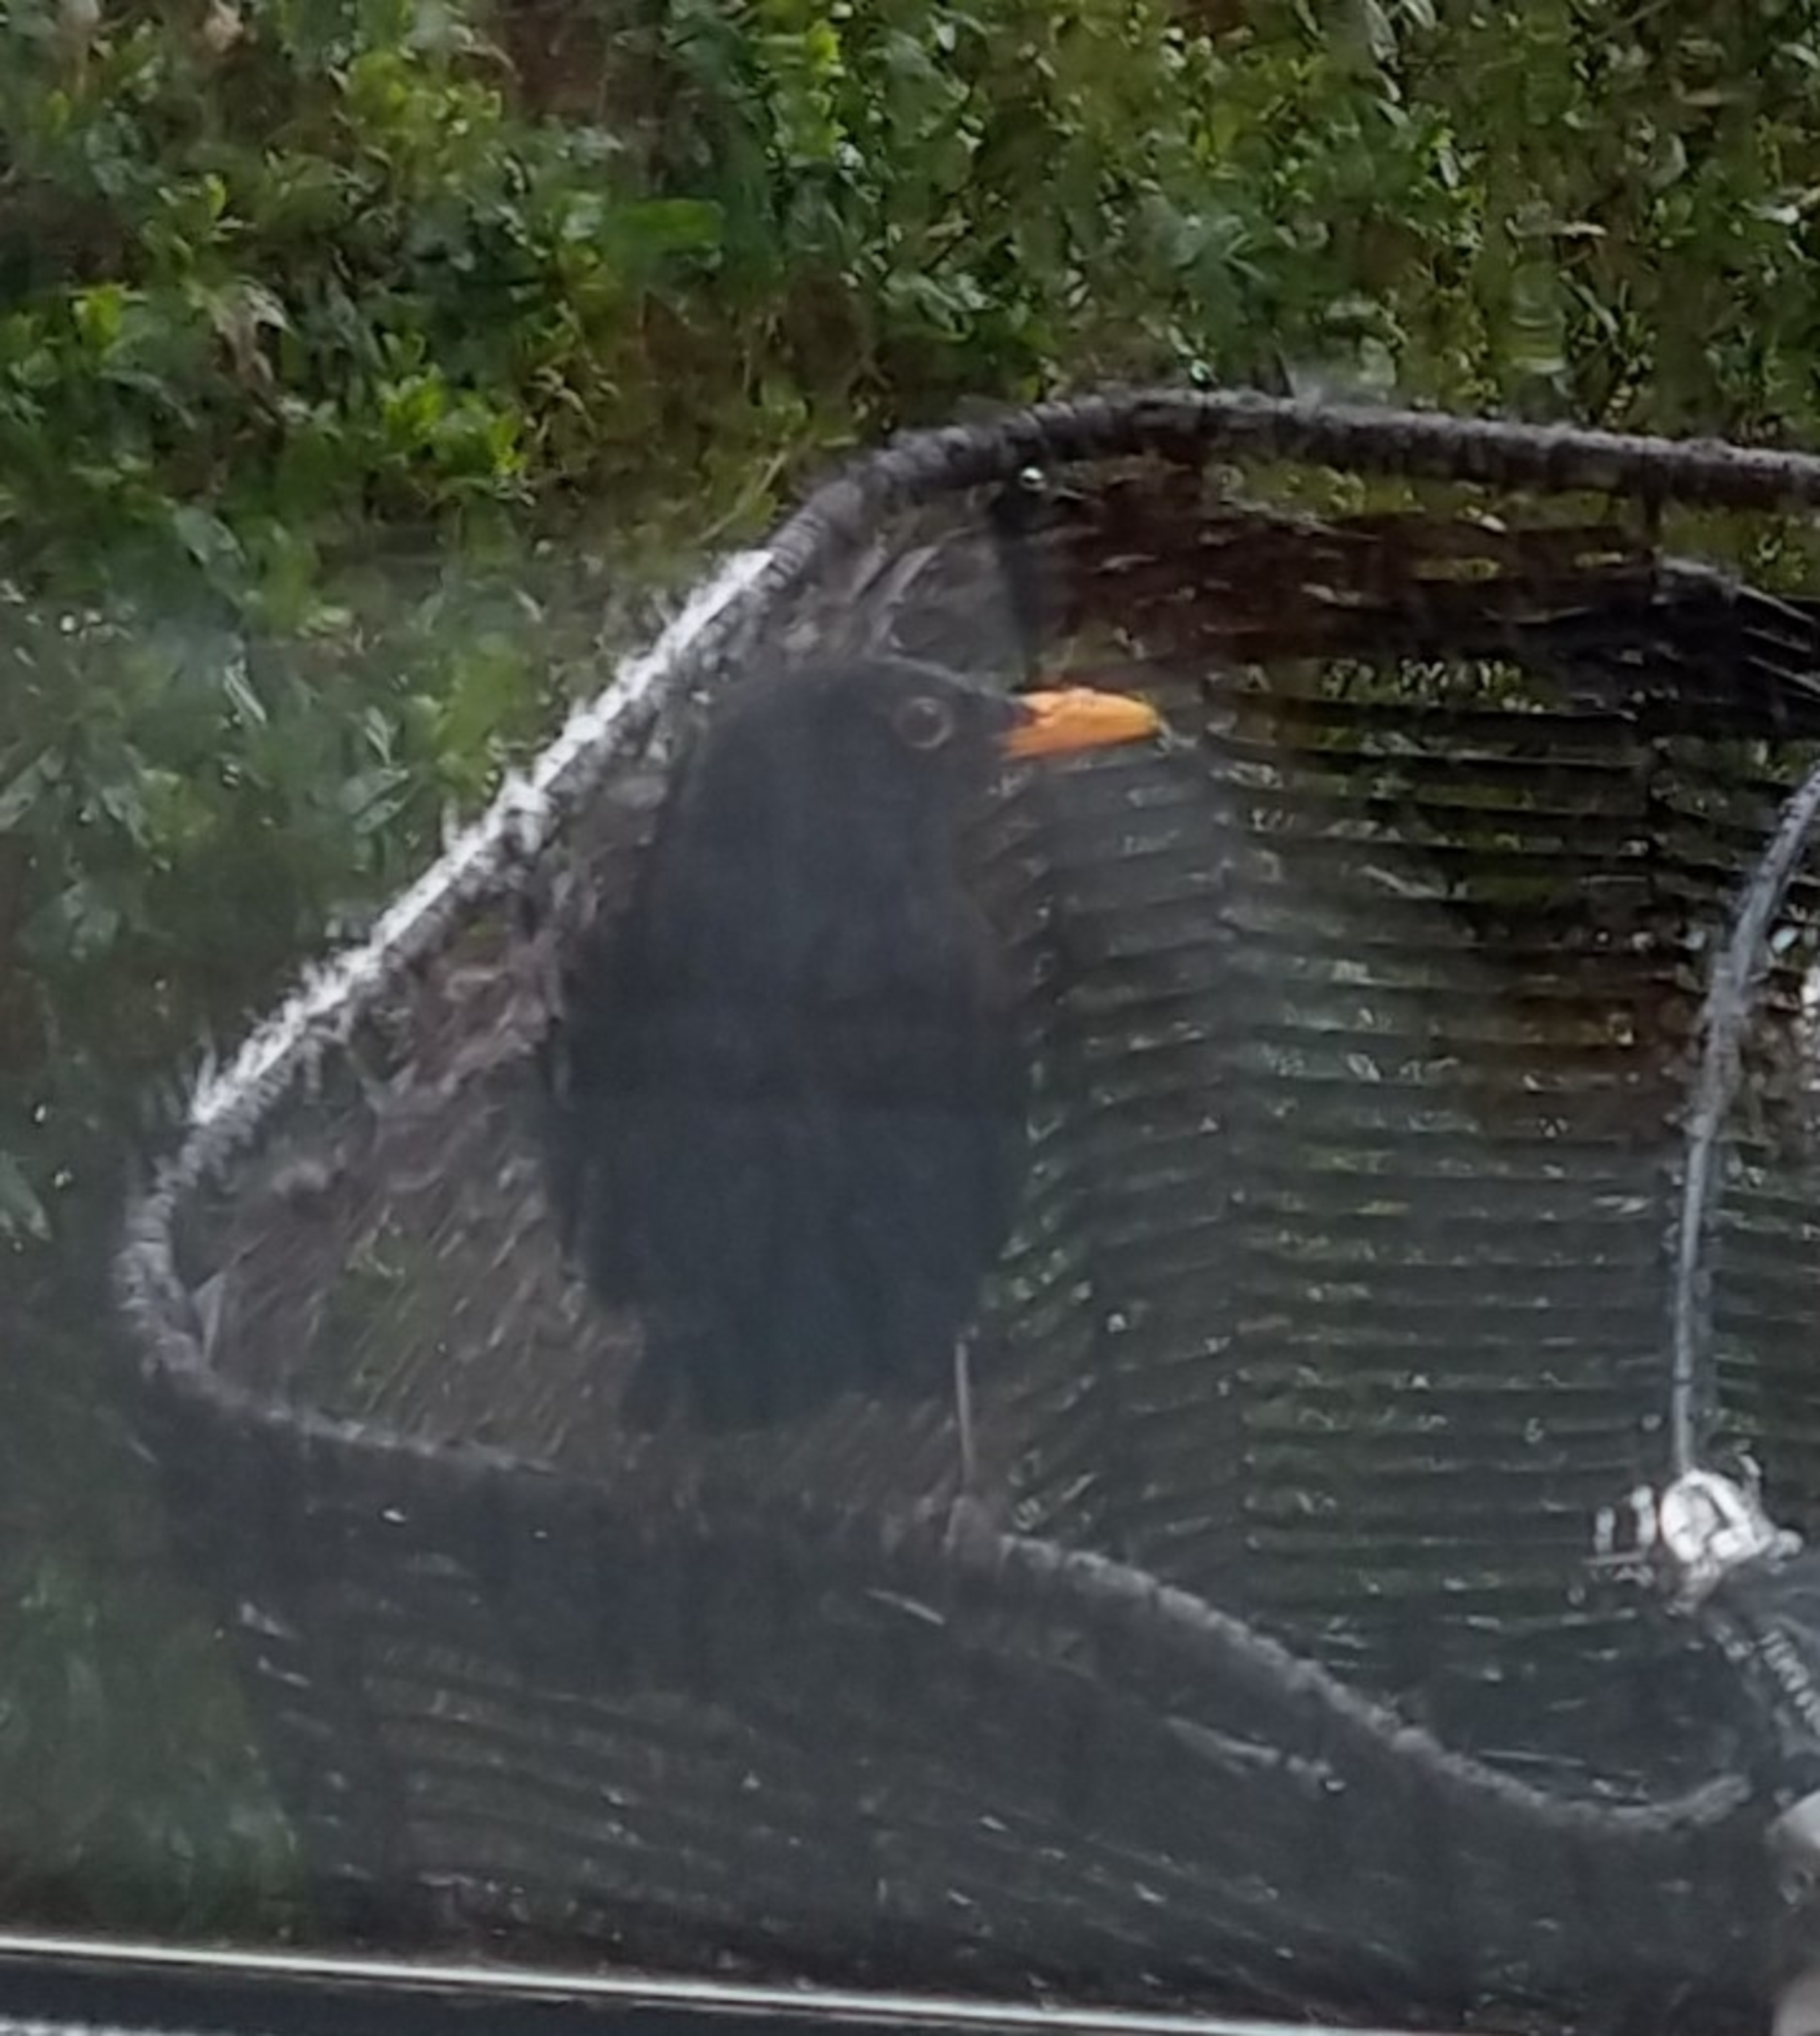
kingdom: Animalia
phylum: Chordata
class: Aves
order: Passeriformes
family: Turdidae
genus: Turdus
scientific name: Turdus merula
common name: Solsort
